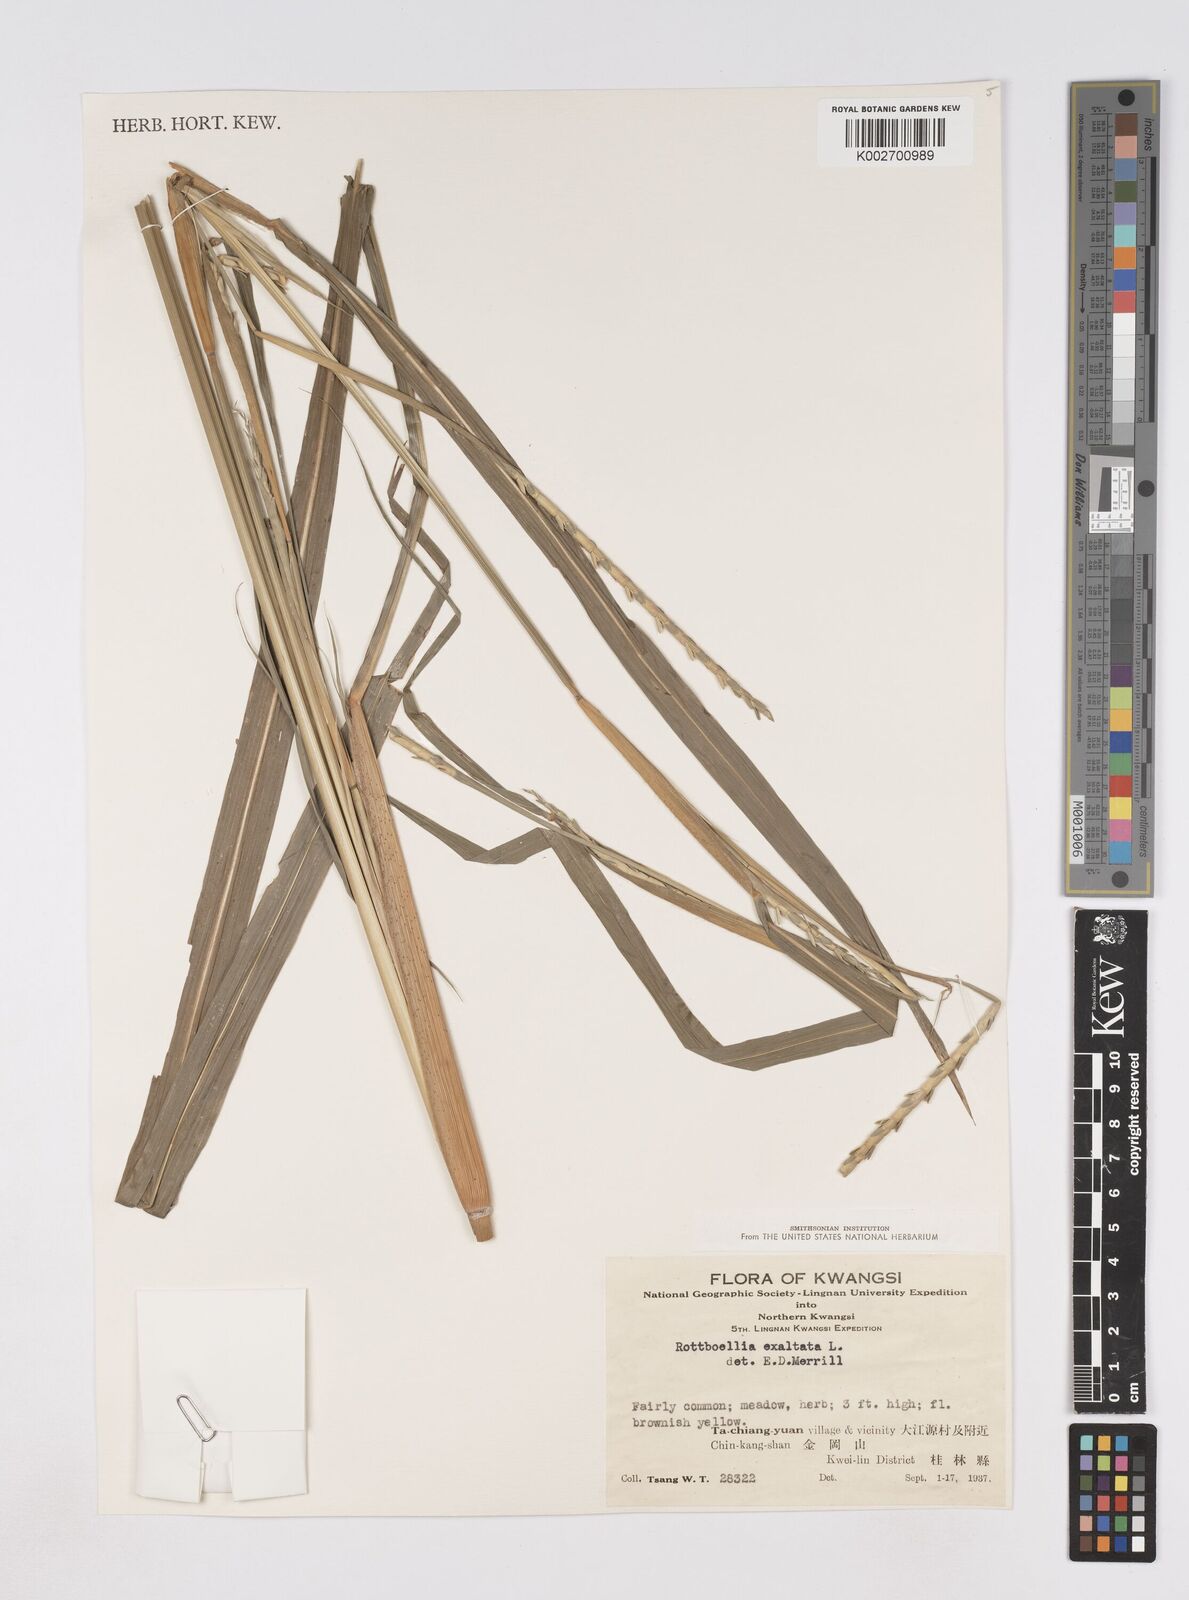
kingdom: Plantae
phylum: Tracheophyta
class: Liliopsida
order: Poales
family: Poaceae
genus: Ophiuros
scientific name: Ophiuros exaltatus
